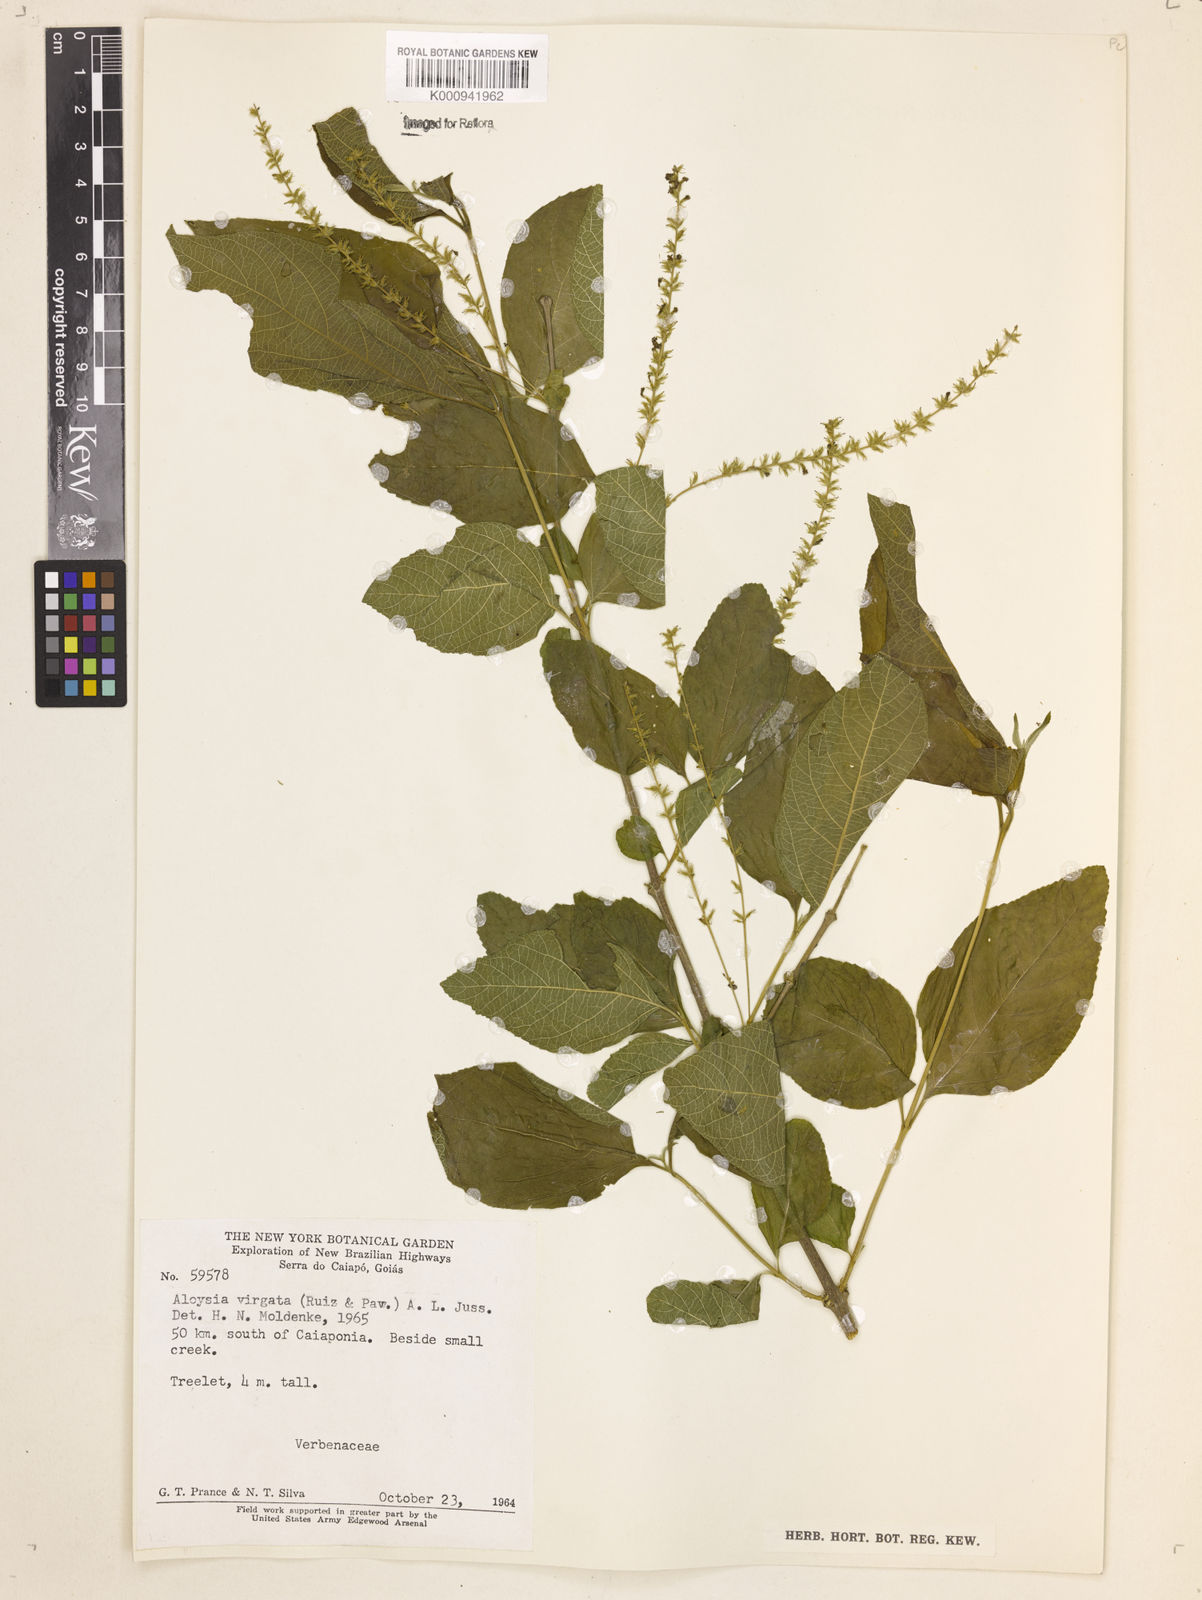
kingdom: Plantae
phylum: Tracheophyta
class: Magnoliopsida
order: Lamiales
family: Verbenaceae
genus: Aloysia
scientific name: Aloysia
